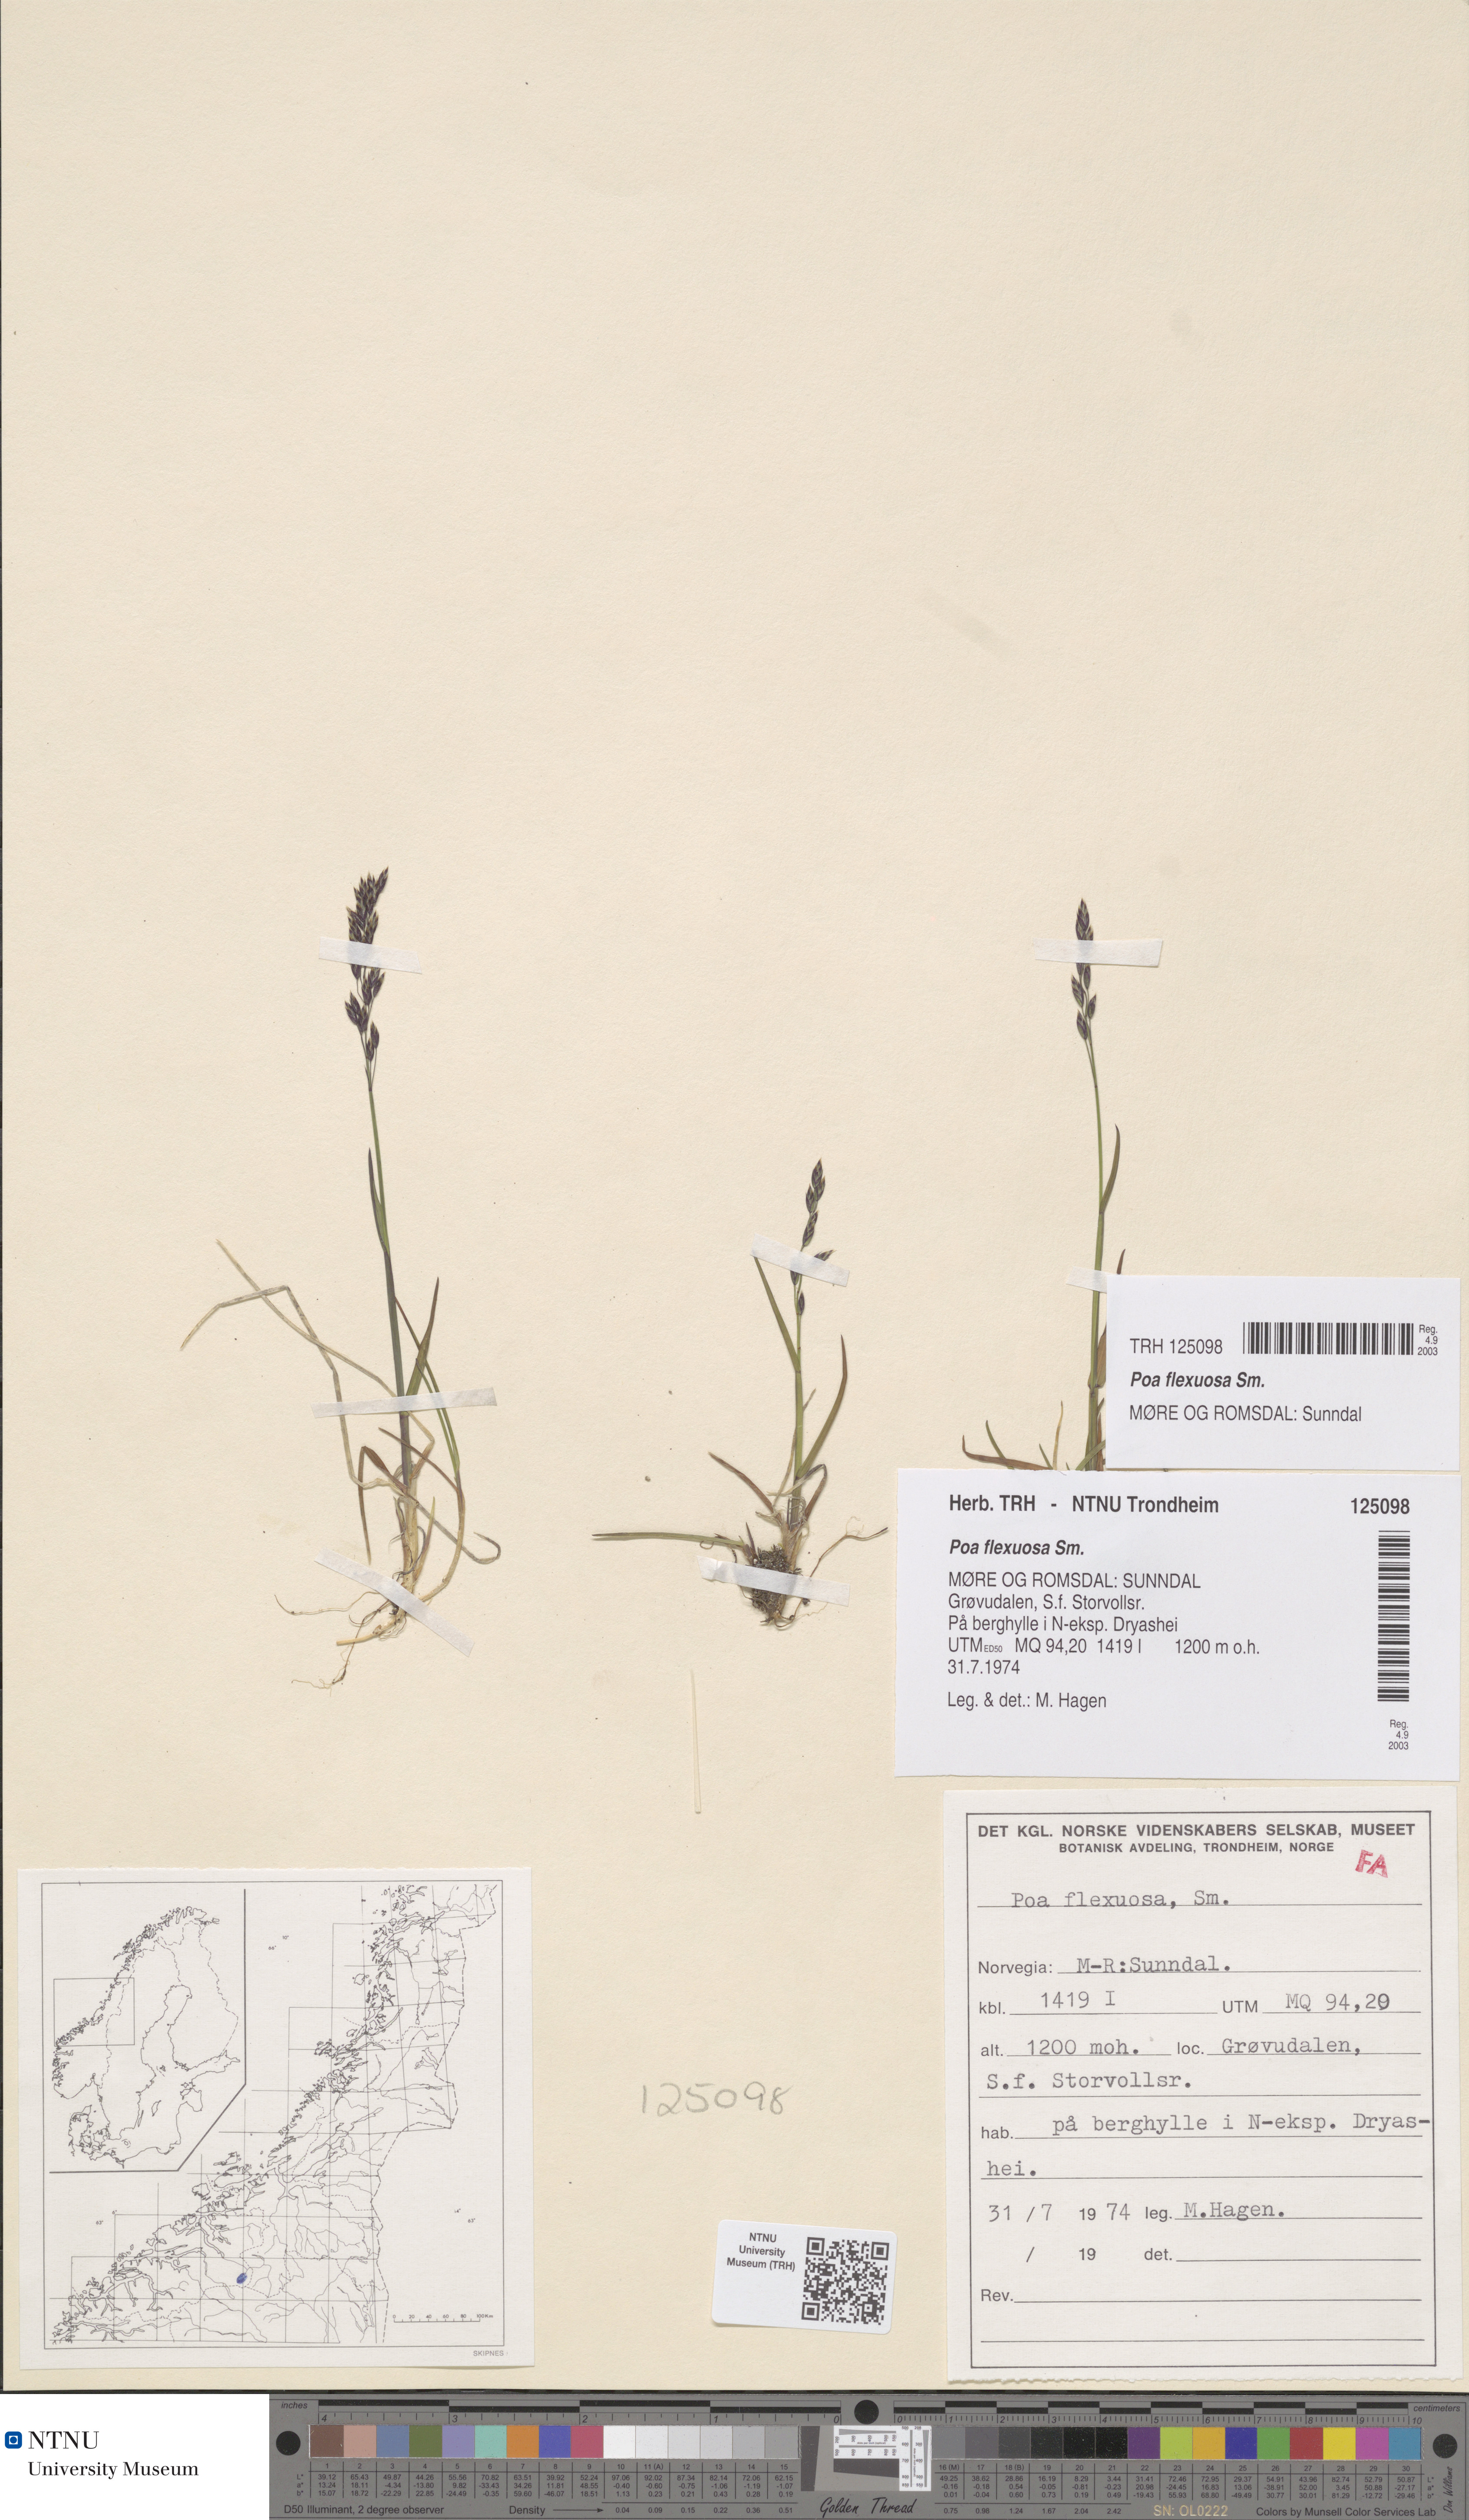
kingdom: Plantae
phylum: Tracheophyta
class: Liliopsida
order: Poales
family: Poaceae
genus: Poa
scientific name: Poa flexuosa
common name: Wavy meadow-grass
